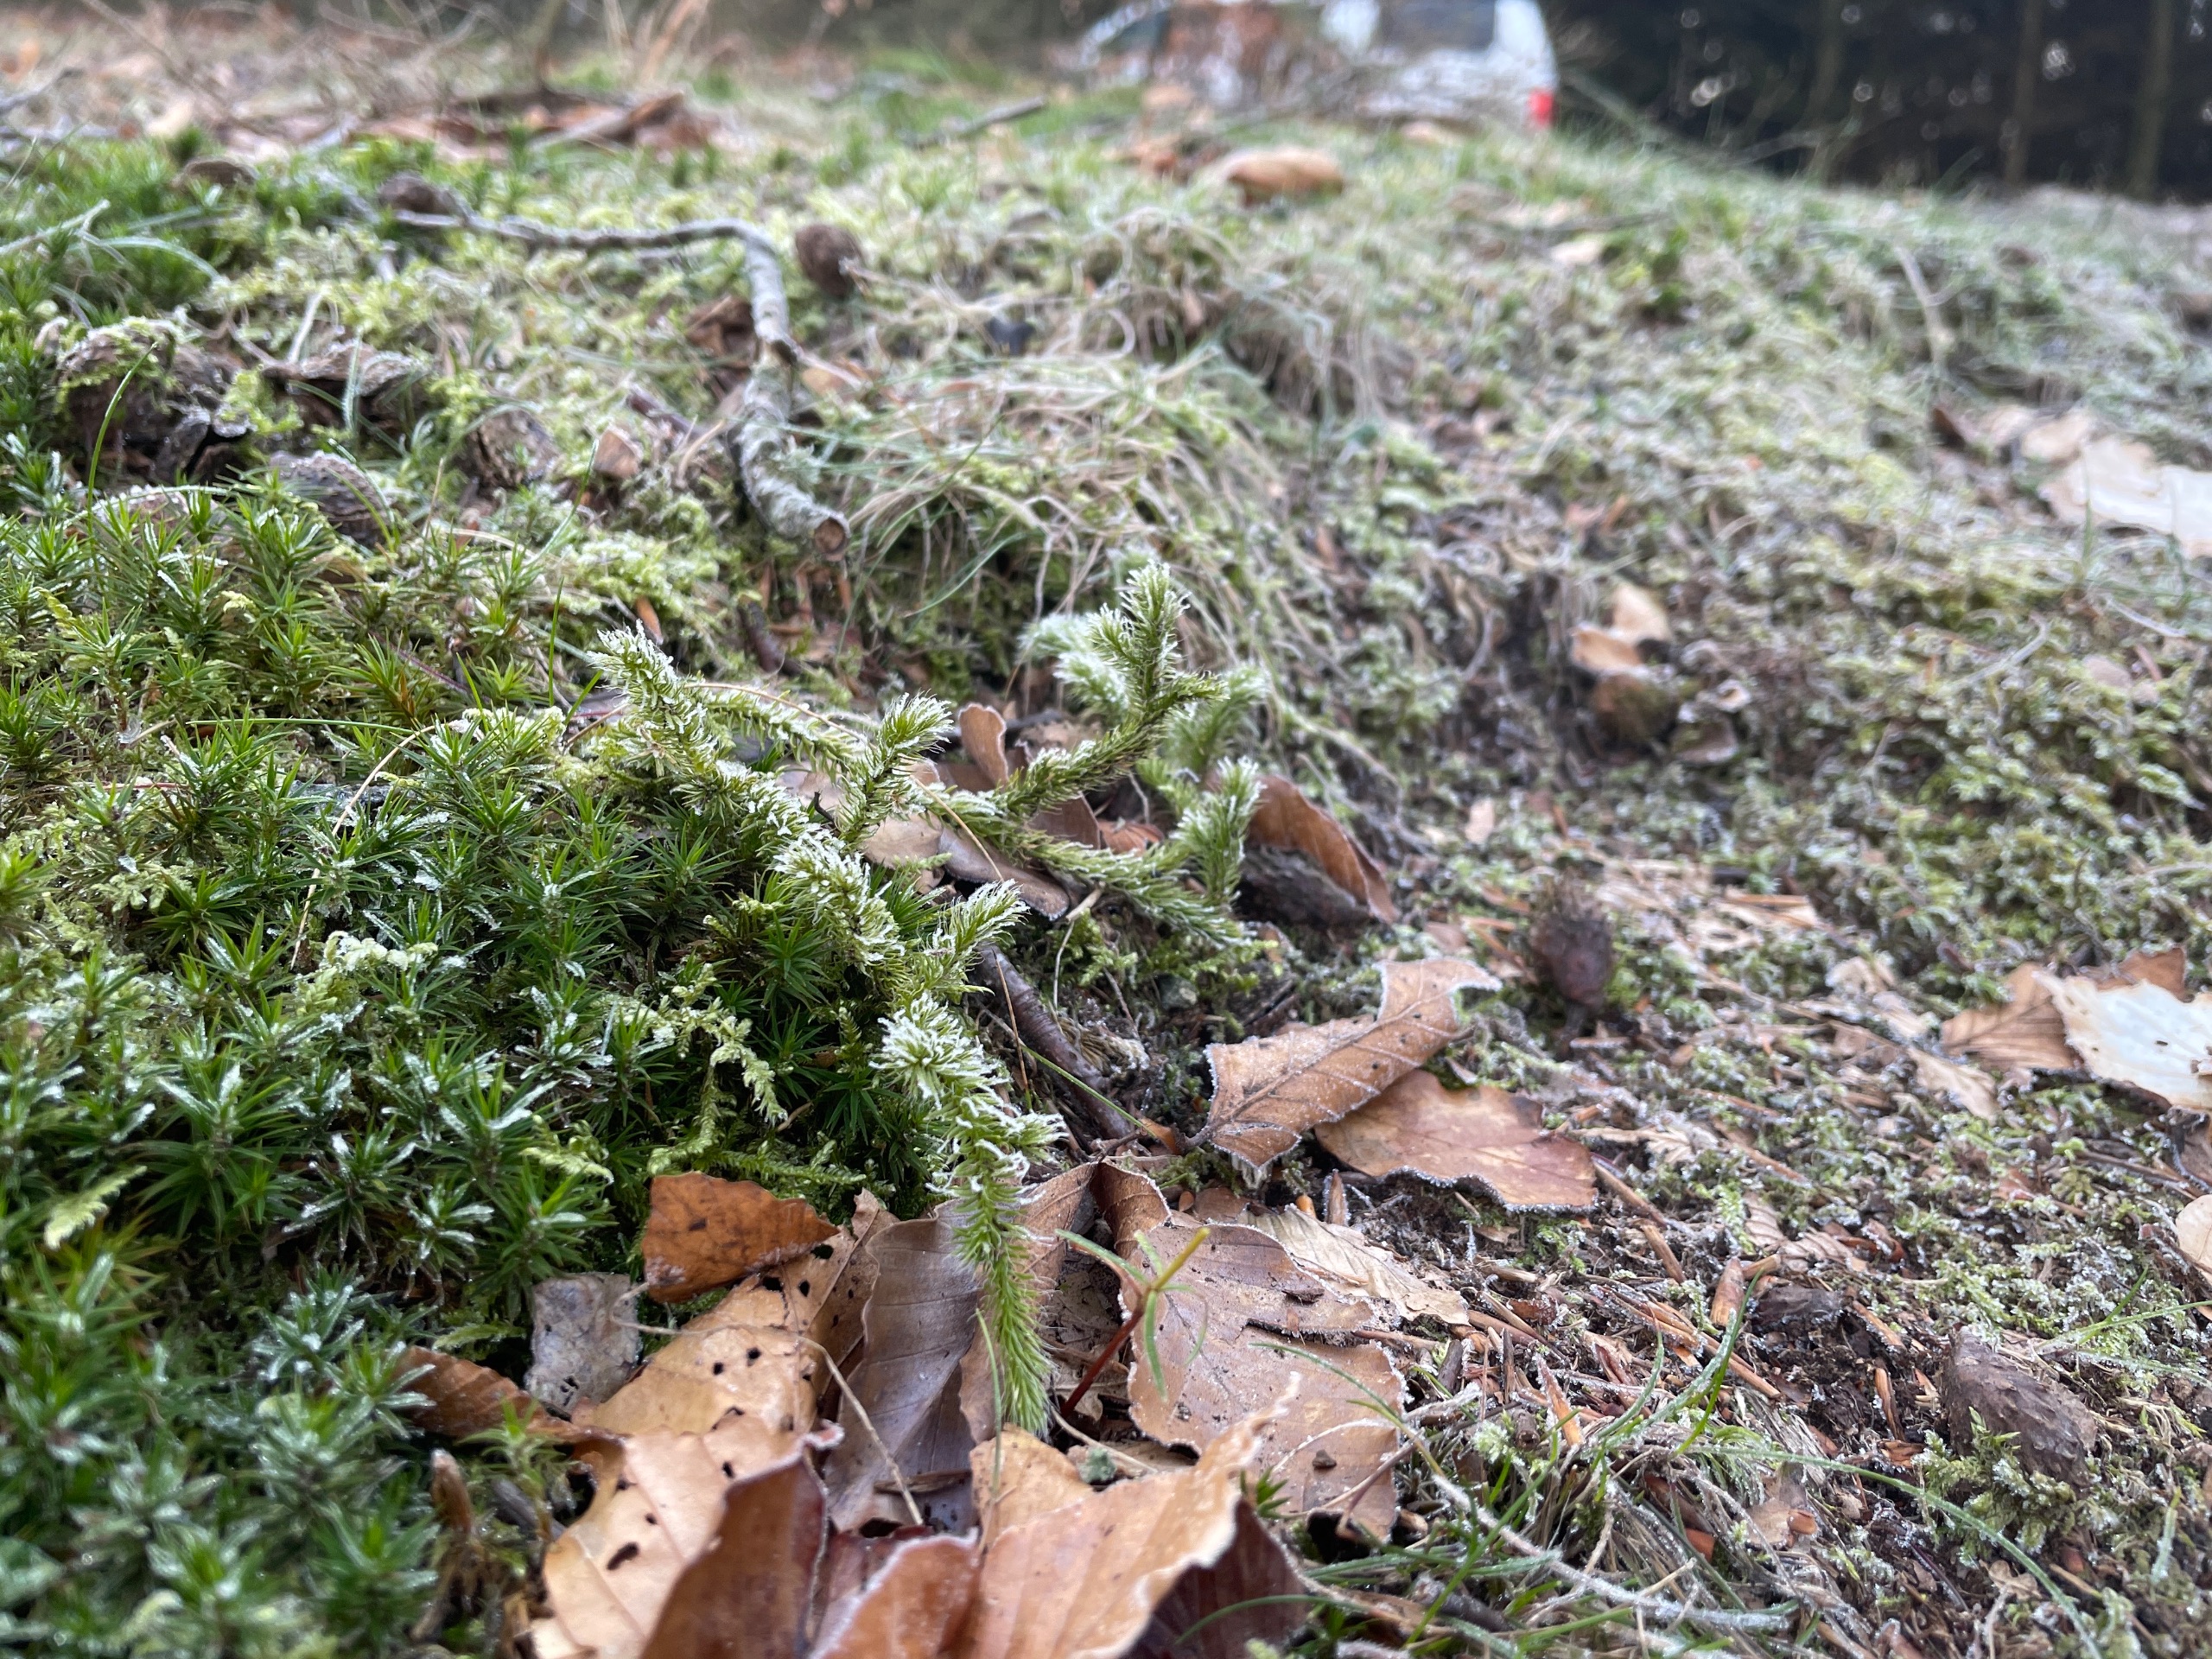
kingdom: Plantae
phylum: Tracheophyta
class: Lycopodiopsida
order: Lycopodiales
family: Lycopodiaceae
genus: Lycopodium
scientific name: Lycopodium clavatum
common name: Almindelig ulvefod
